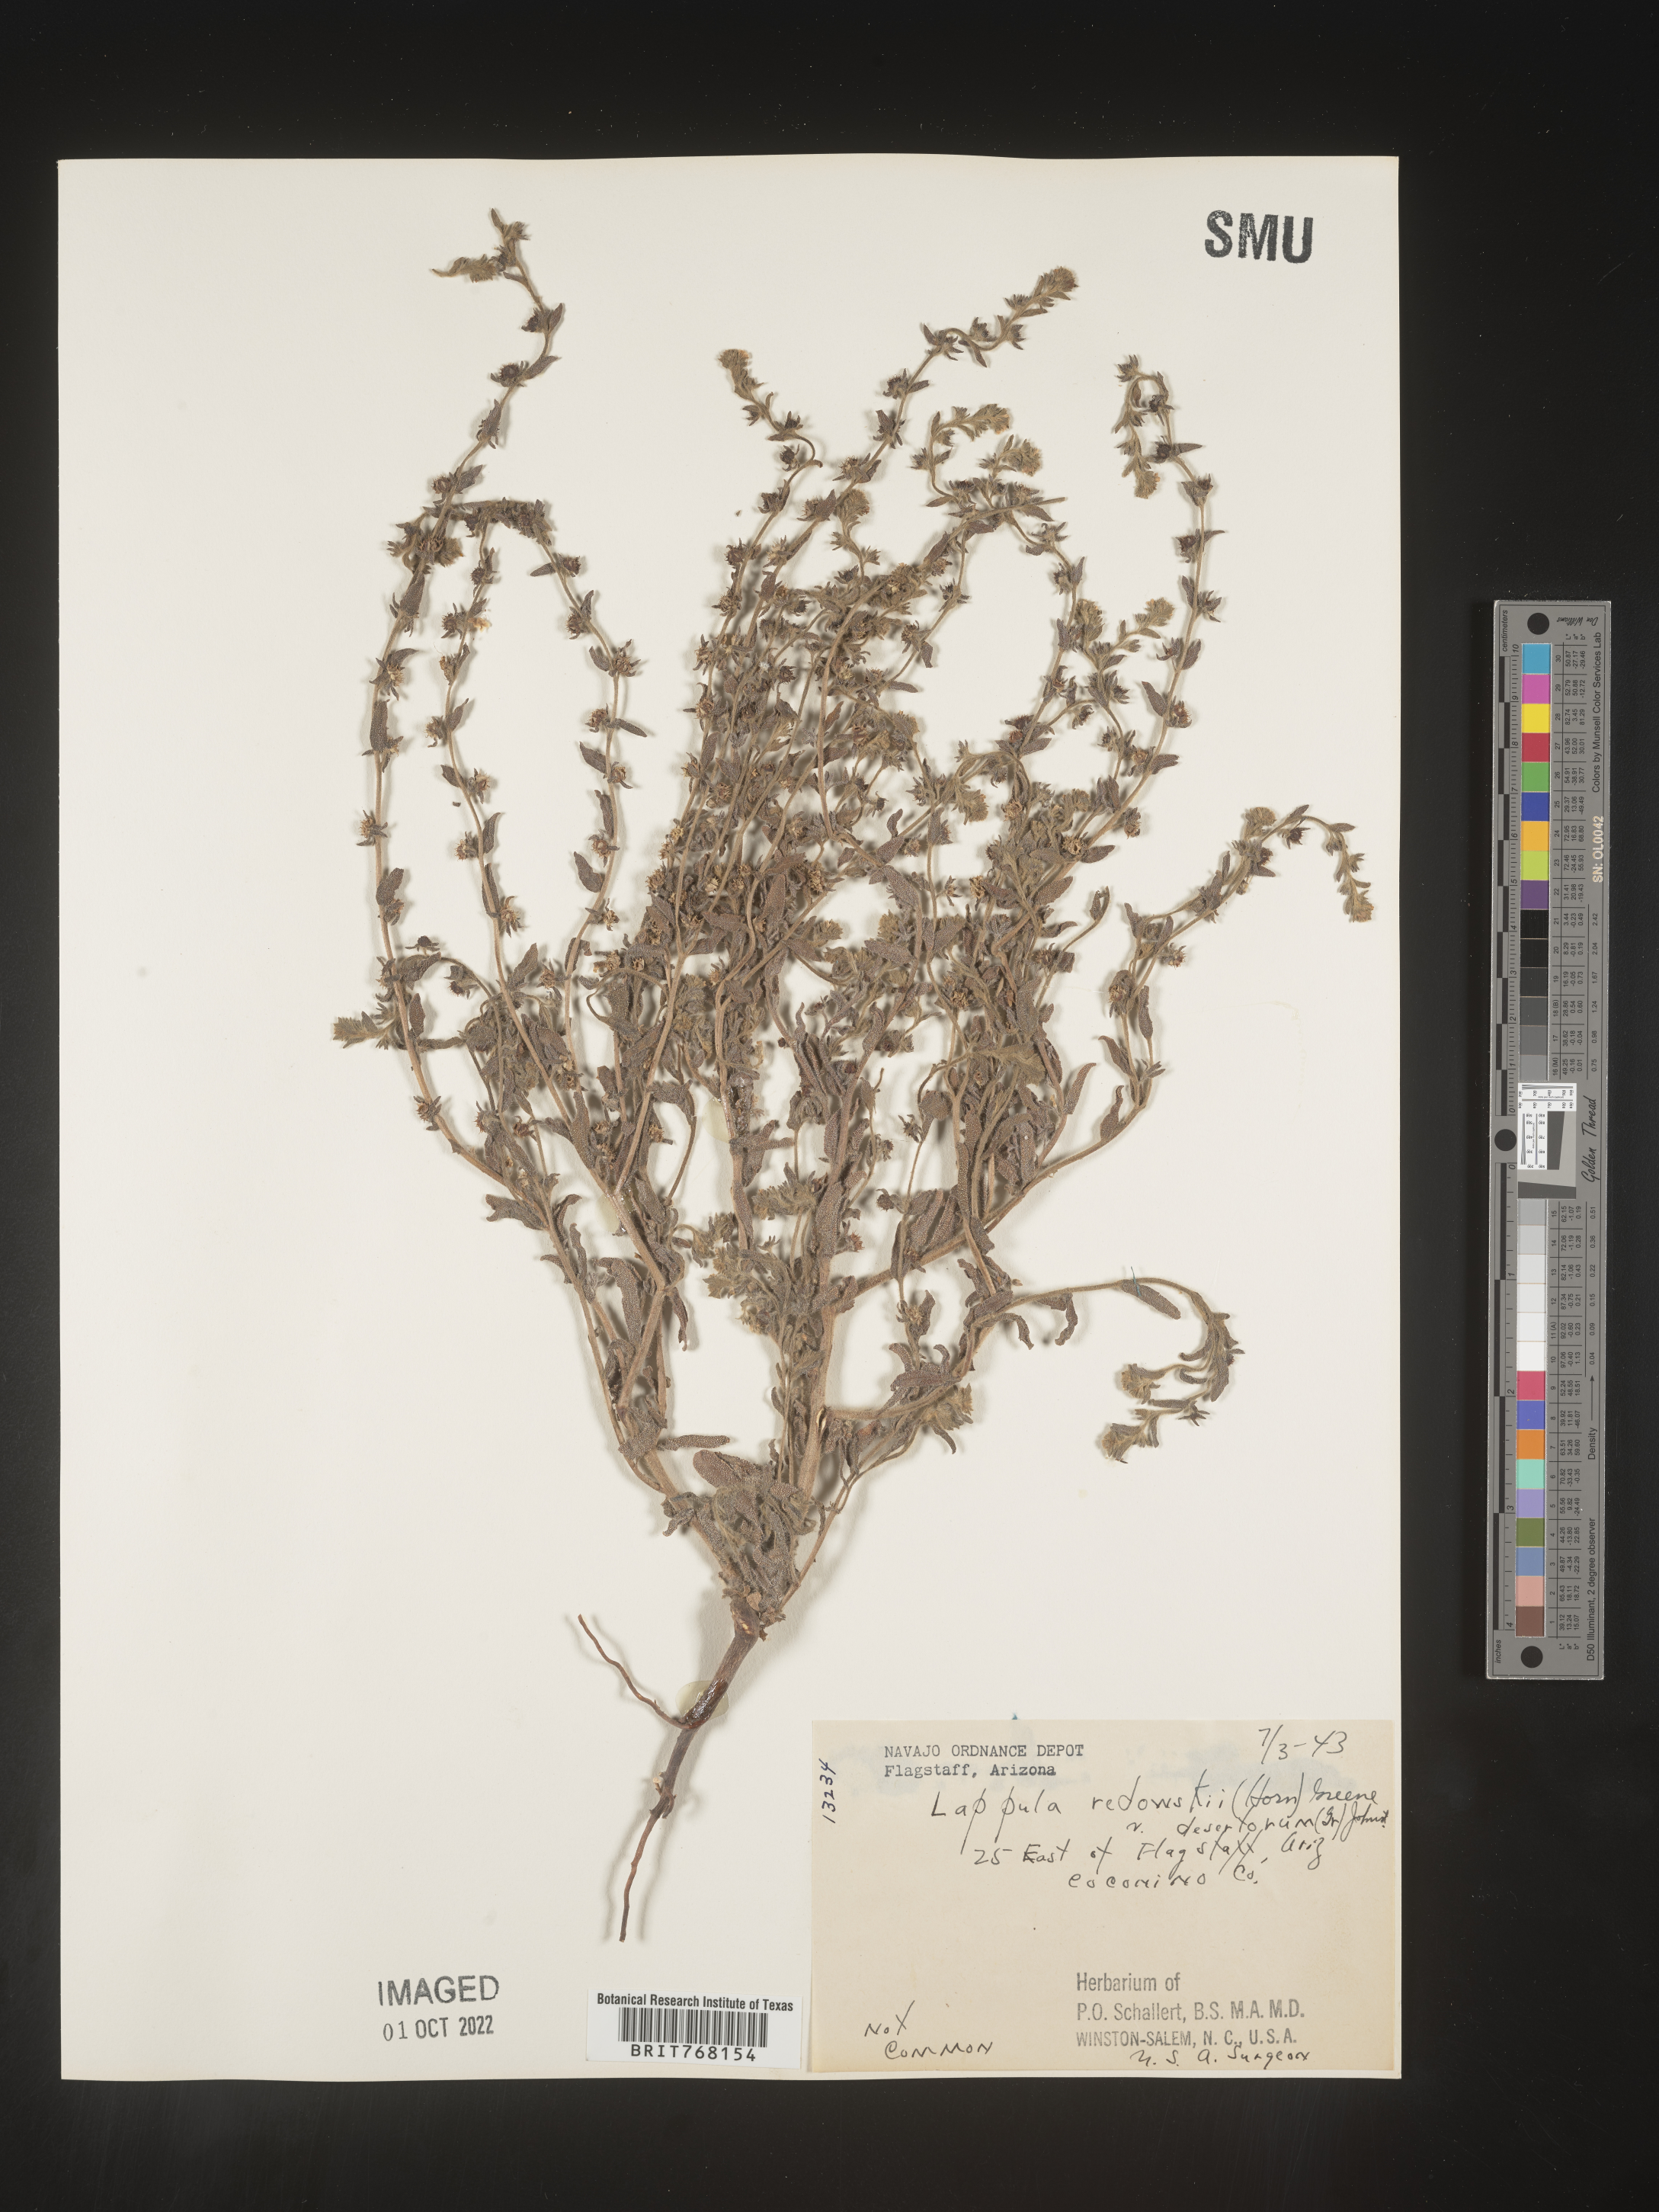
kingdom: Plantae
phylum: Tracheophyta
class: Magnoliopsida
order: Boraginales
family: Boraginaceae
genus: Lappula
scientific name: Lappula redowskii
